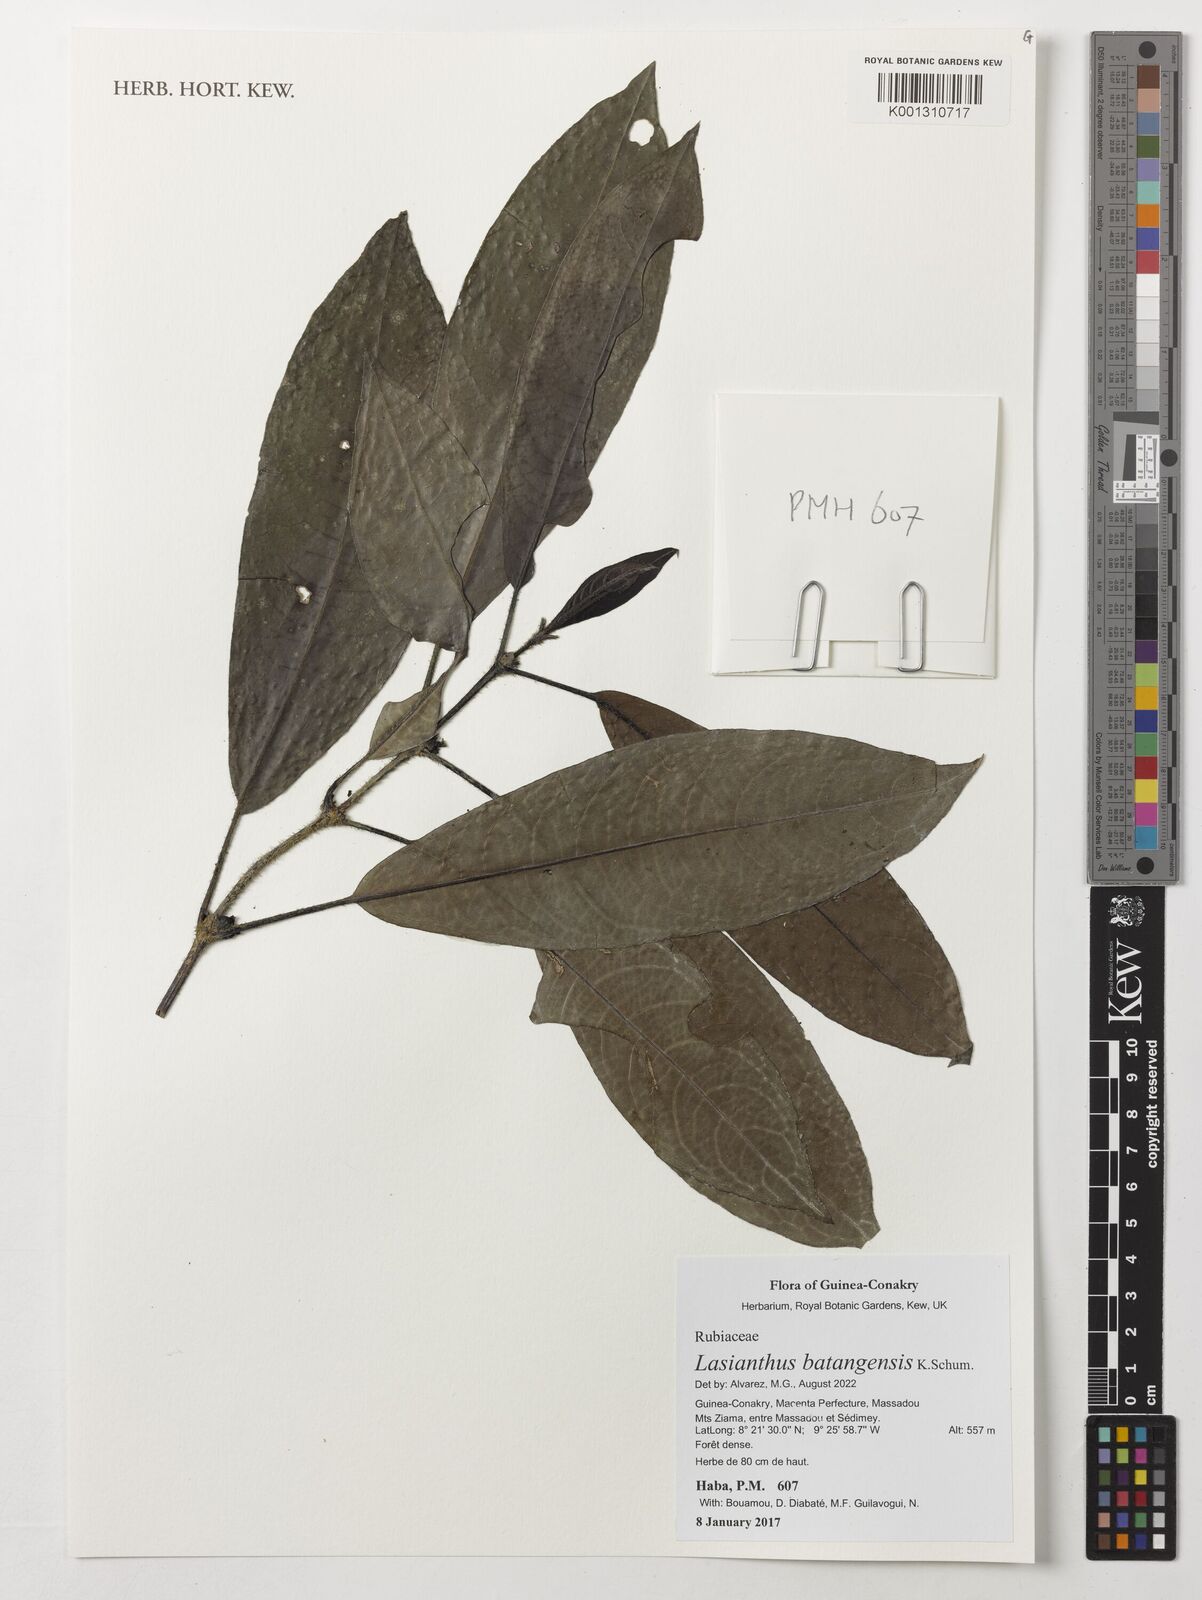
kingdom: Plantae
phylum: Tracheophyta
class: Magnoliopsida
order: Gentianales
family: Rubiaceae
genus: Lasianthus
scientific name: Lasianthus batangensis
